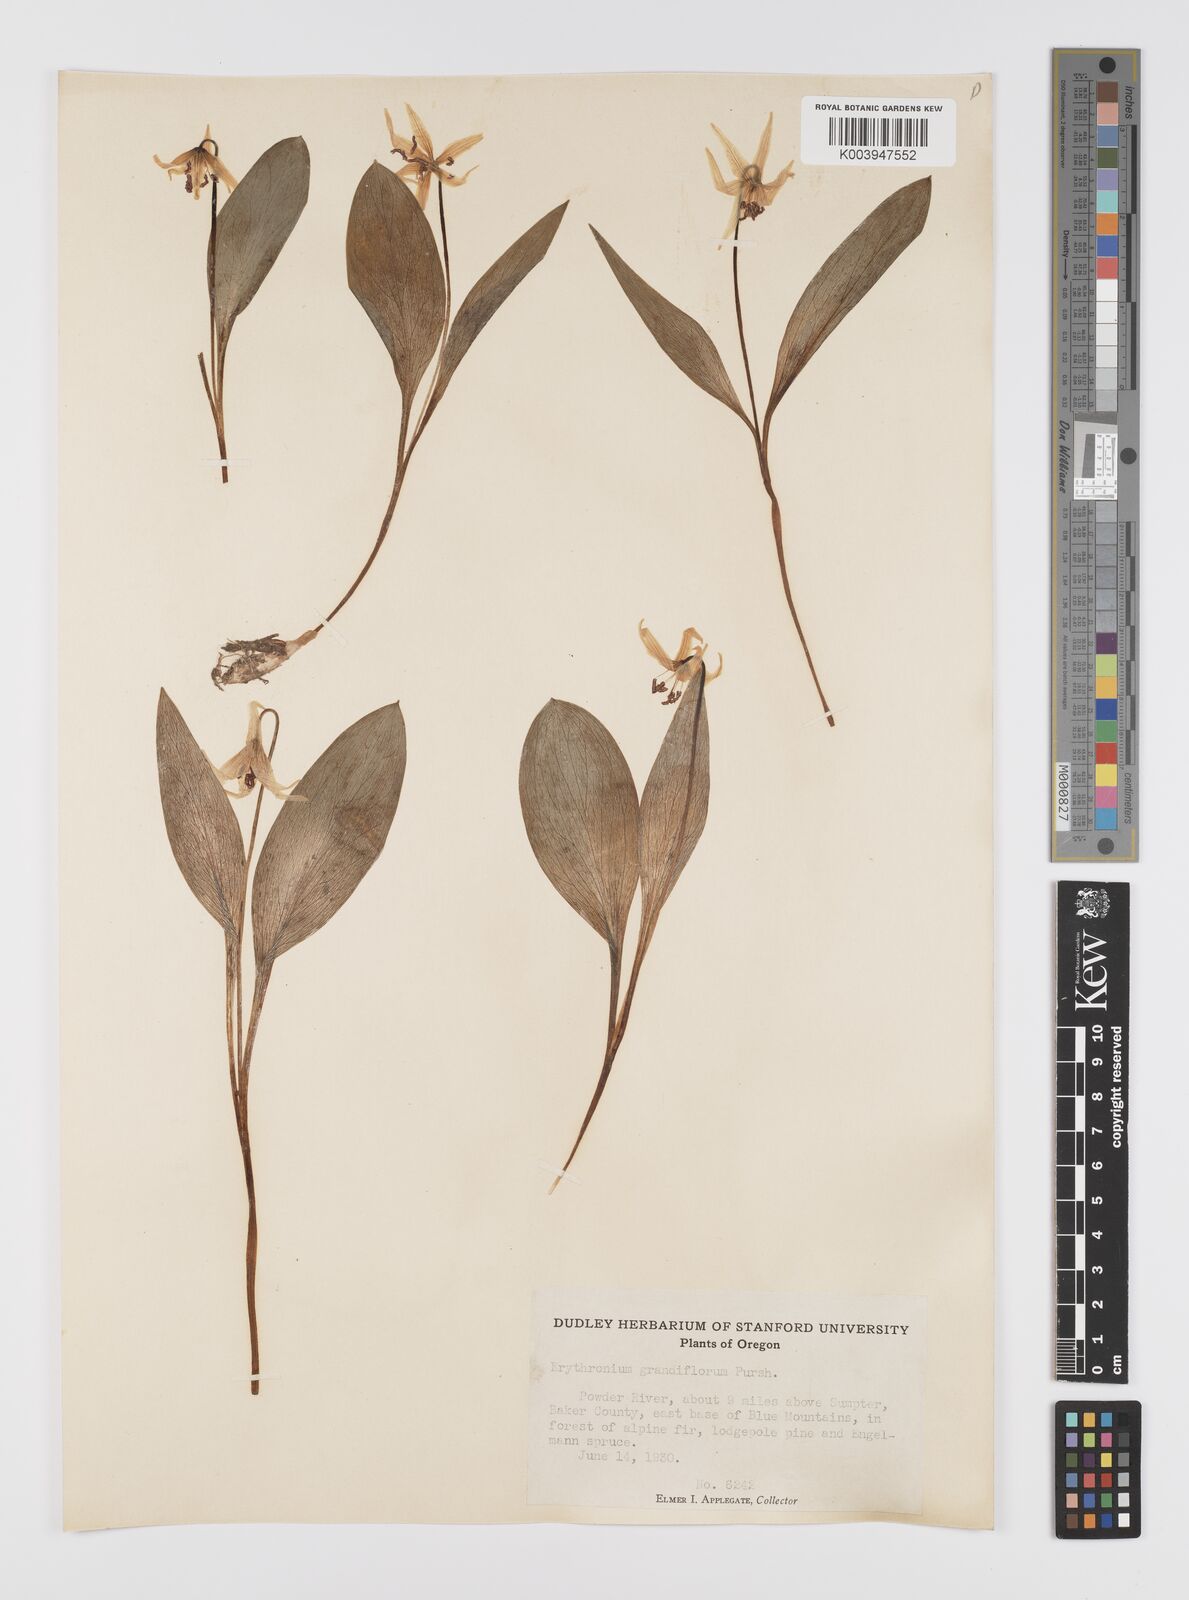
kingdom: Plantae
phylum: Tracheophyta
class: Liliopsida
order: Liliales
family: Liliaceae
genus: Erythronium
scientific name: Erythronium grandiflorum
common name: Avalanche-lily
